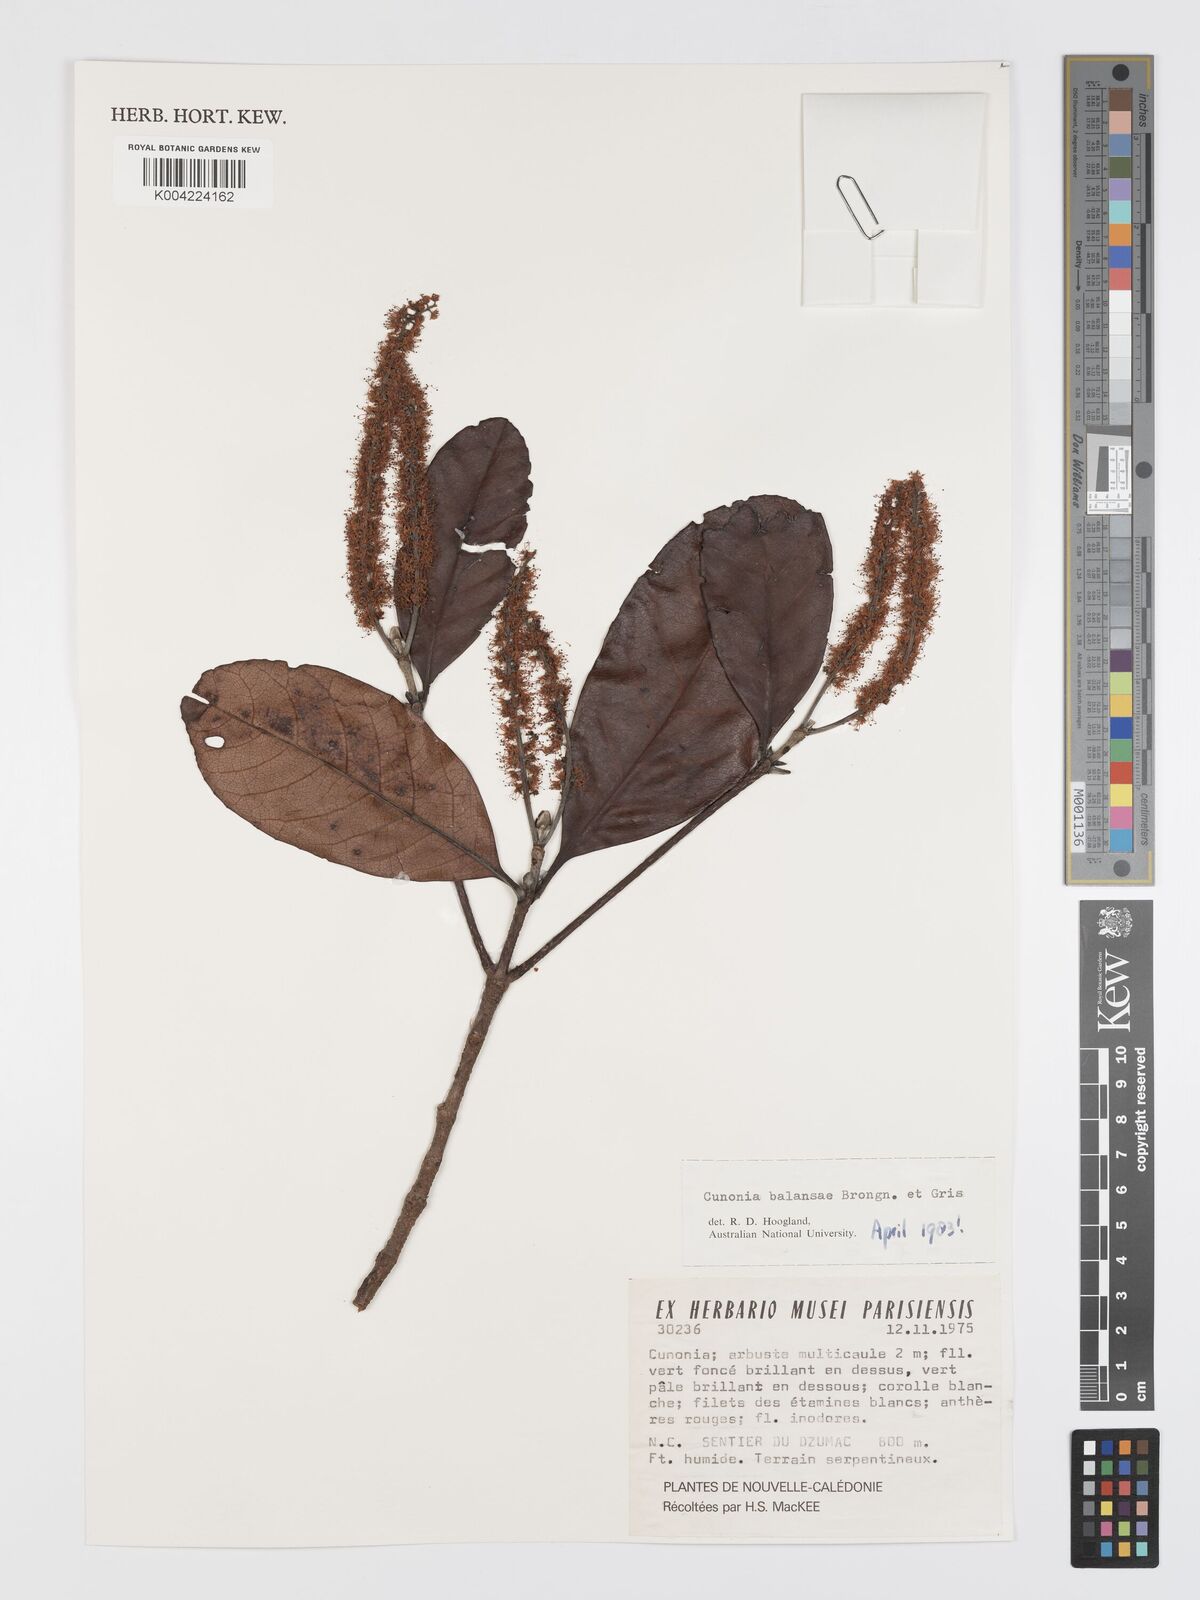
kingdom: Plantae
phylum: Tracheophyta
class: Magnoliopsida
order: Oxalidales
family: Cunoniaceae
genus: Cunonia
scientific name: Cunonia balansae
